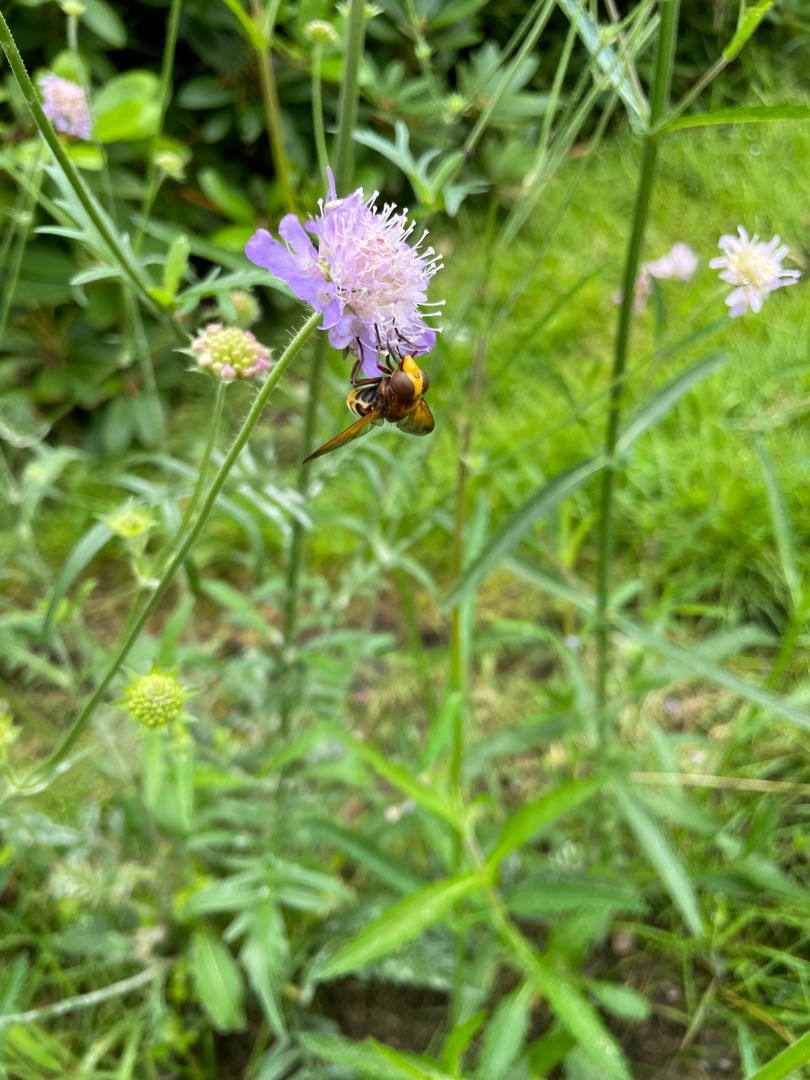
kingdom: Animalia
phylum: Arthropoda
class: Insecta
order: Diptera
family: Syrphidae
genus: Volucella
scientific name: Volucella zonaria
